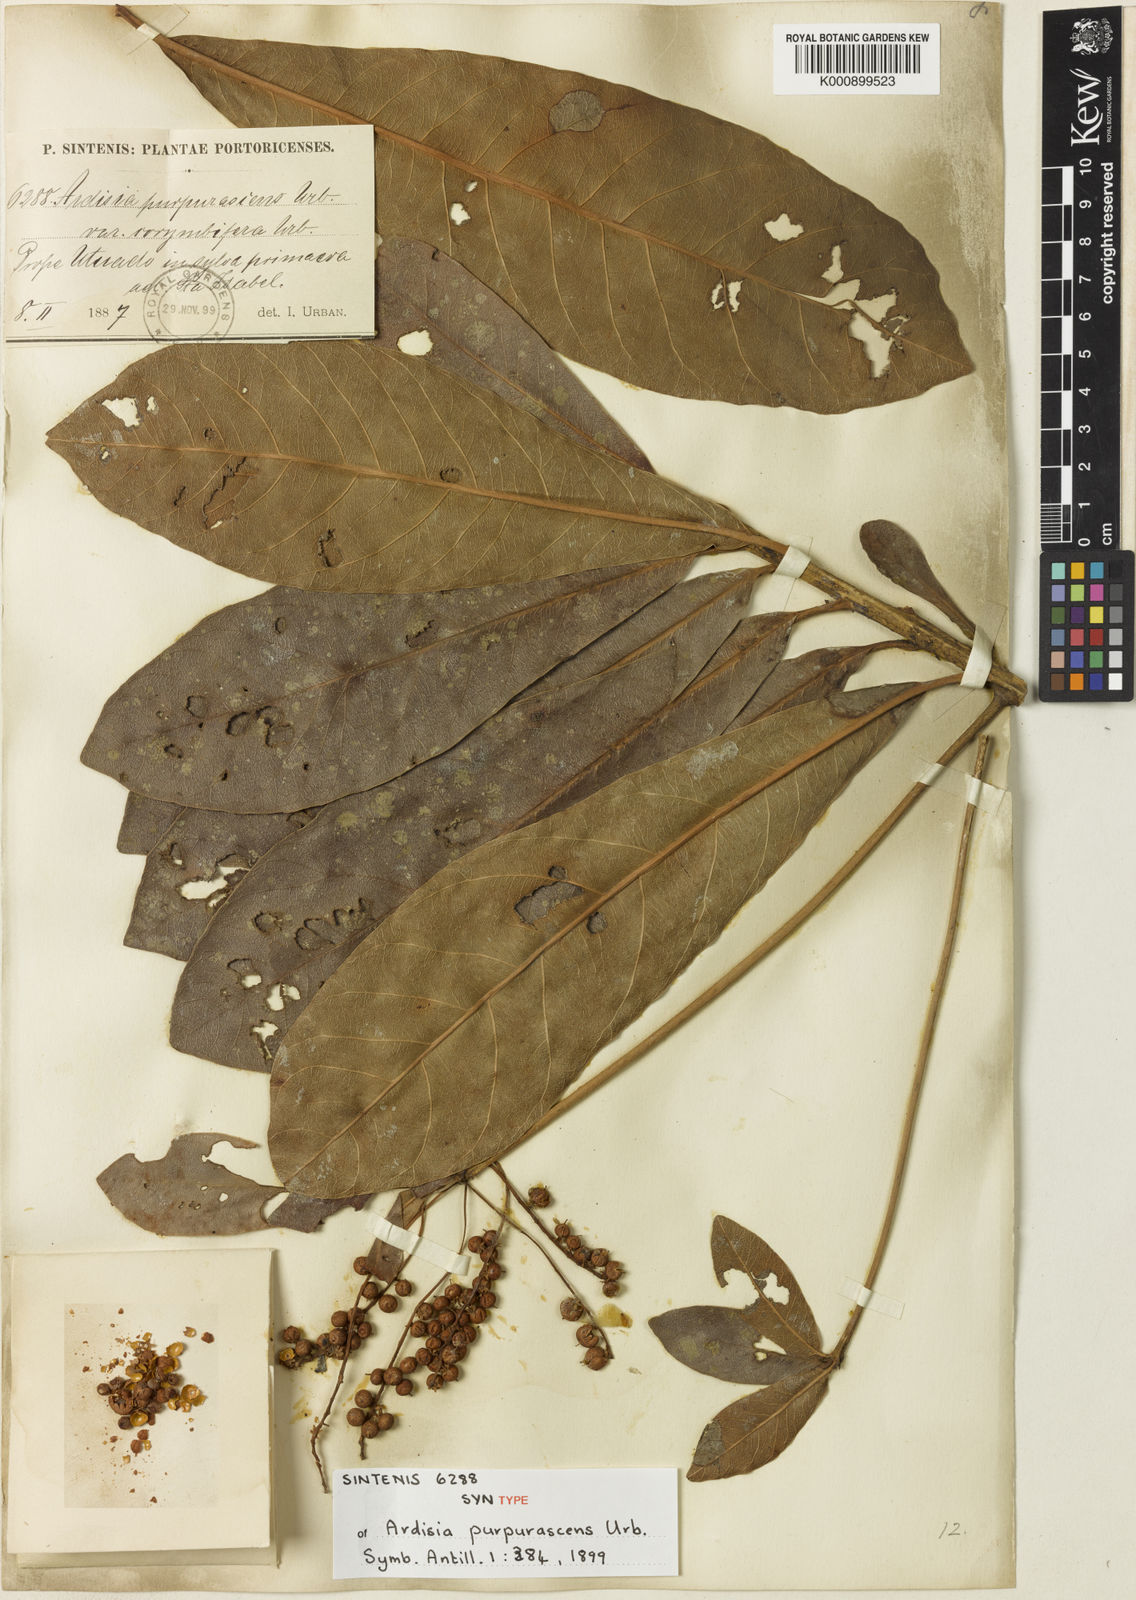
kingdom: Plantae
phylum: Tracheophyta
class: Magnoliopsida
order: Ericales
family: Primulaceae
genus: Cybianthus
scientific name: Cybianthus
